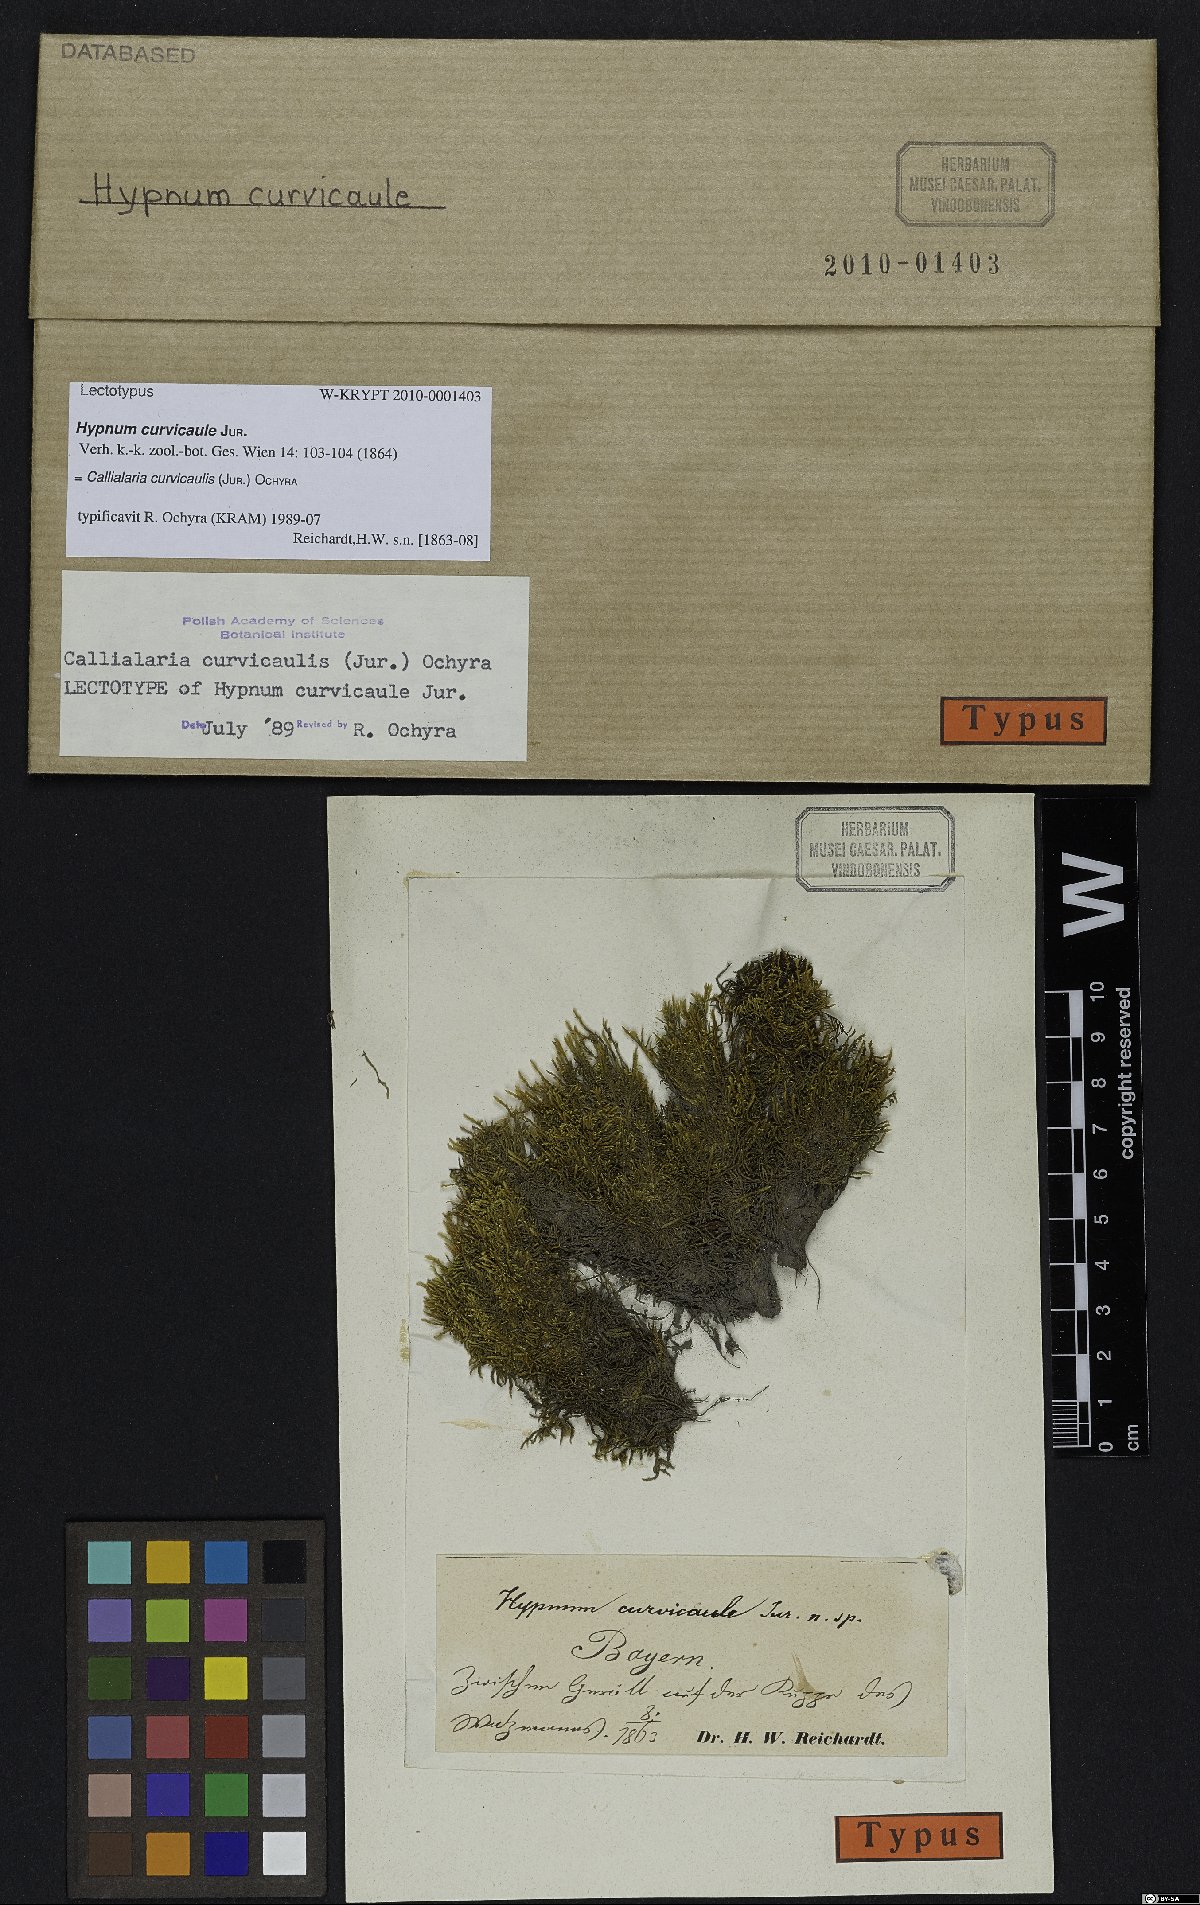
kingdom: Plantae
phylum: Bryophyta
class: Bryopsida
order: Hypnales
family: Amblystegiaceae
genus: Cratoneuron
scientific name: Cratoneuron curvicaule
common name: Bent-stem hook-moss
